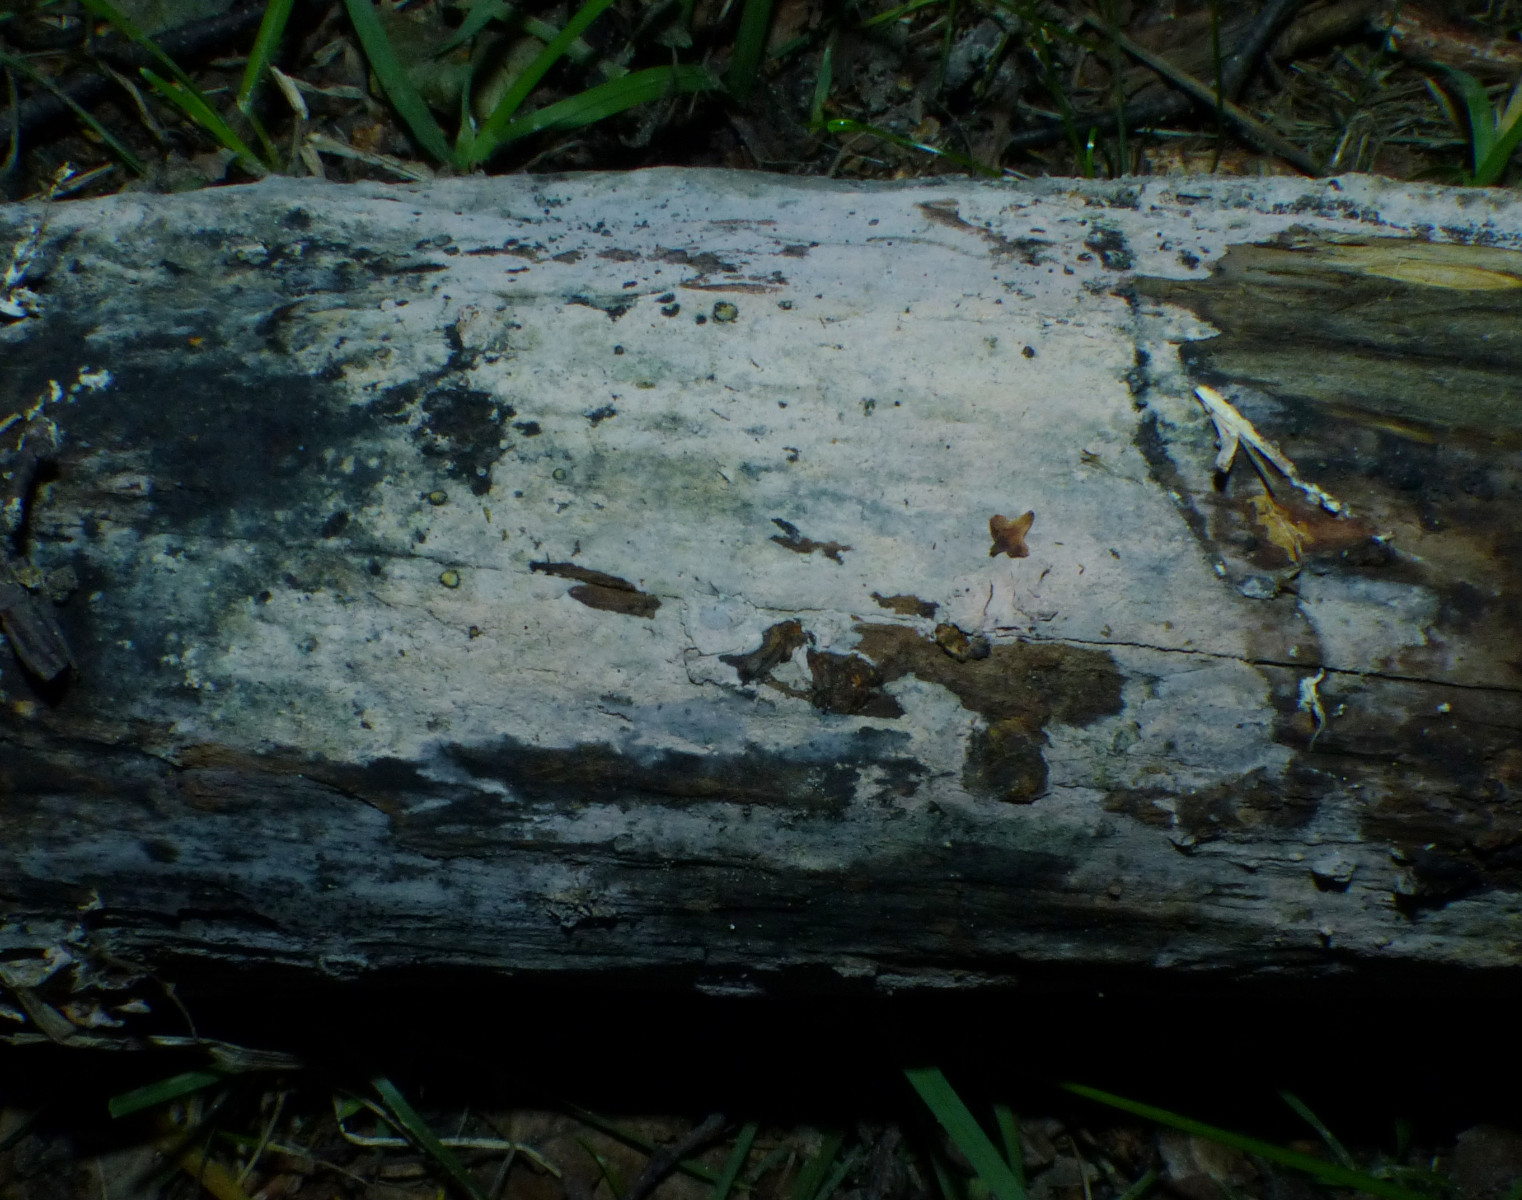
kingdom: Fungi
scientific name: Fungi
